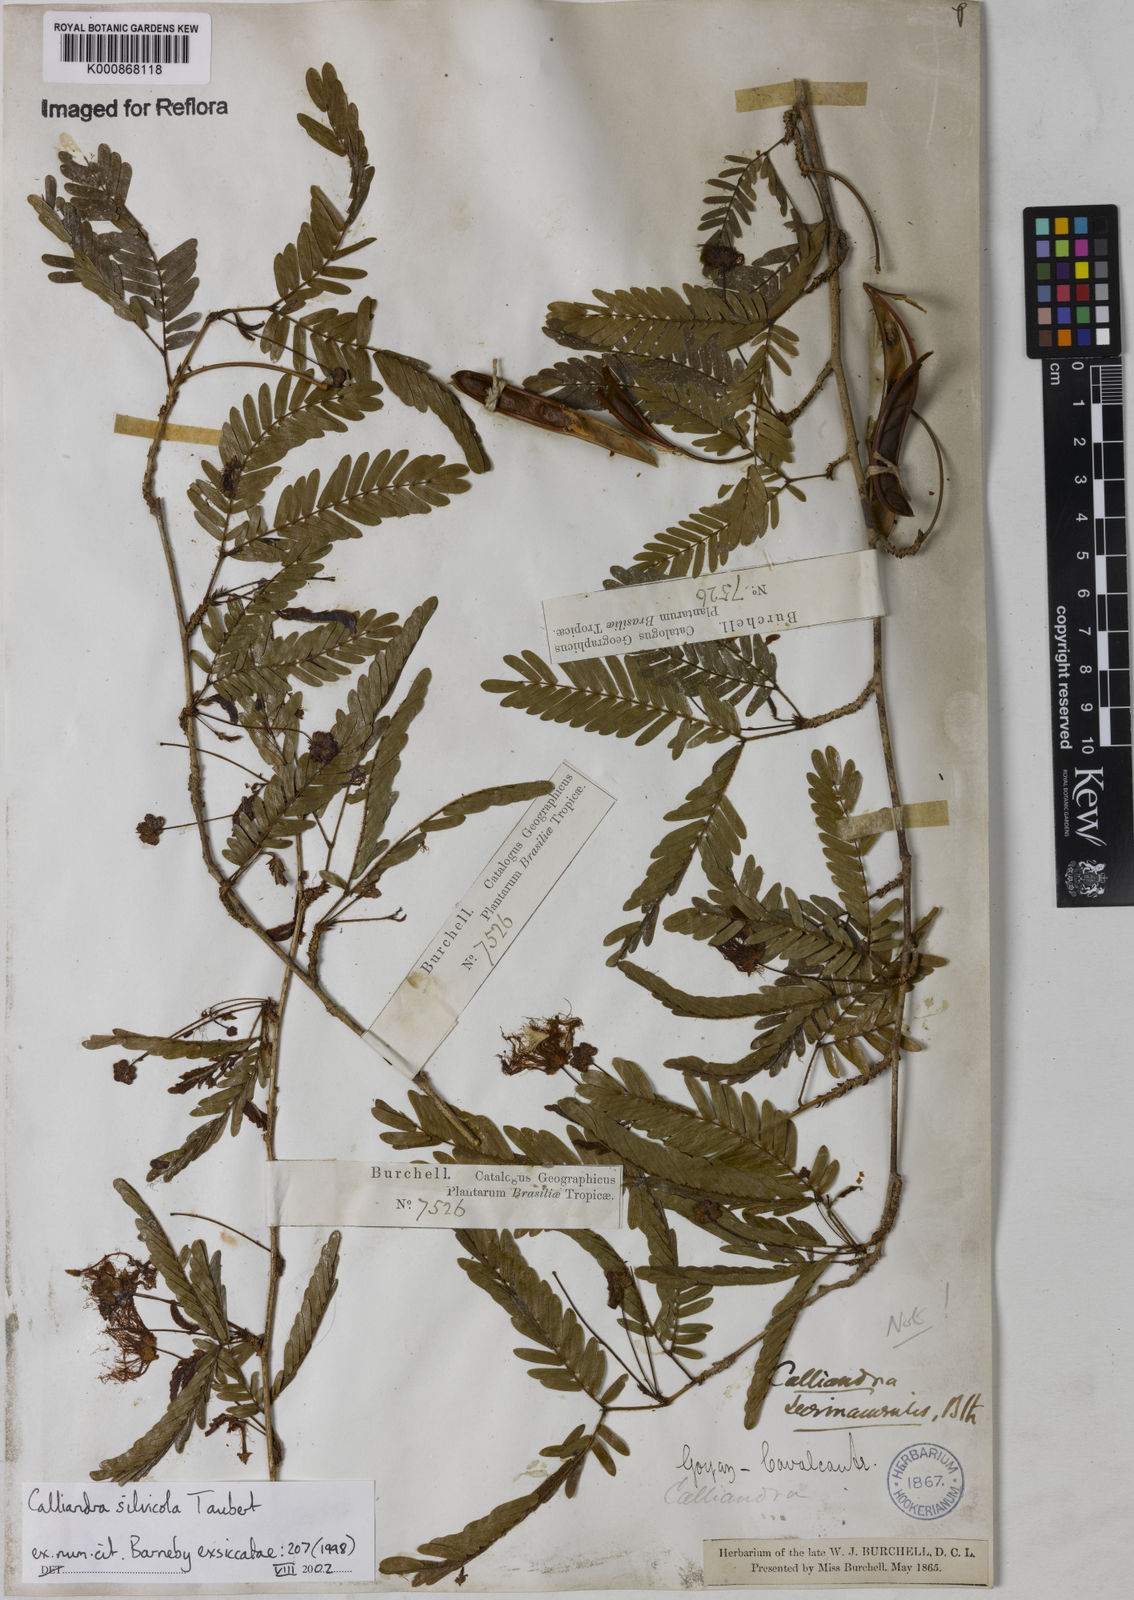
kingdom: Plantae
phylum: Tracheophyta
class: Magnoliopsida
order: Fabales
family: Fabaceae
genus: Calliandra
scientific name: Calliandra silvicola
